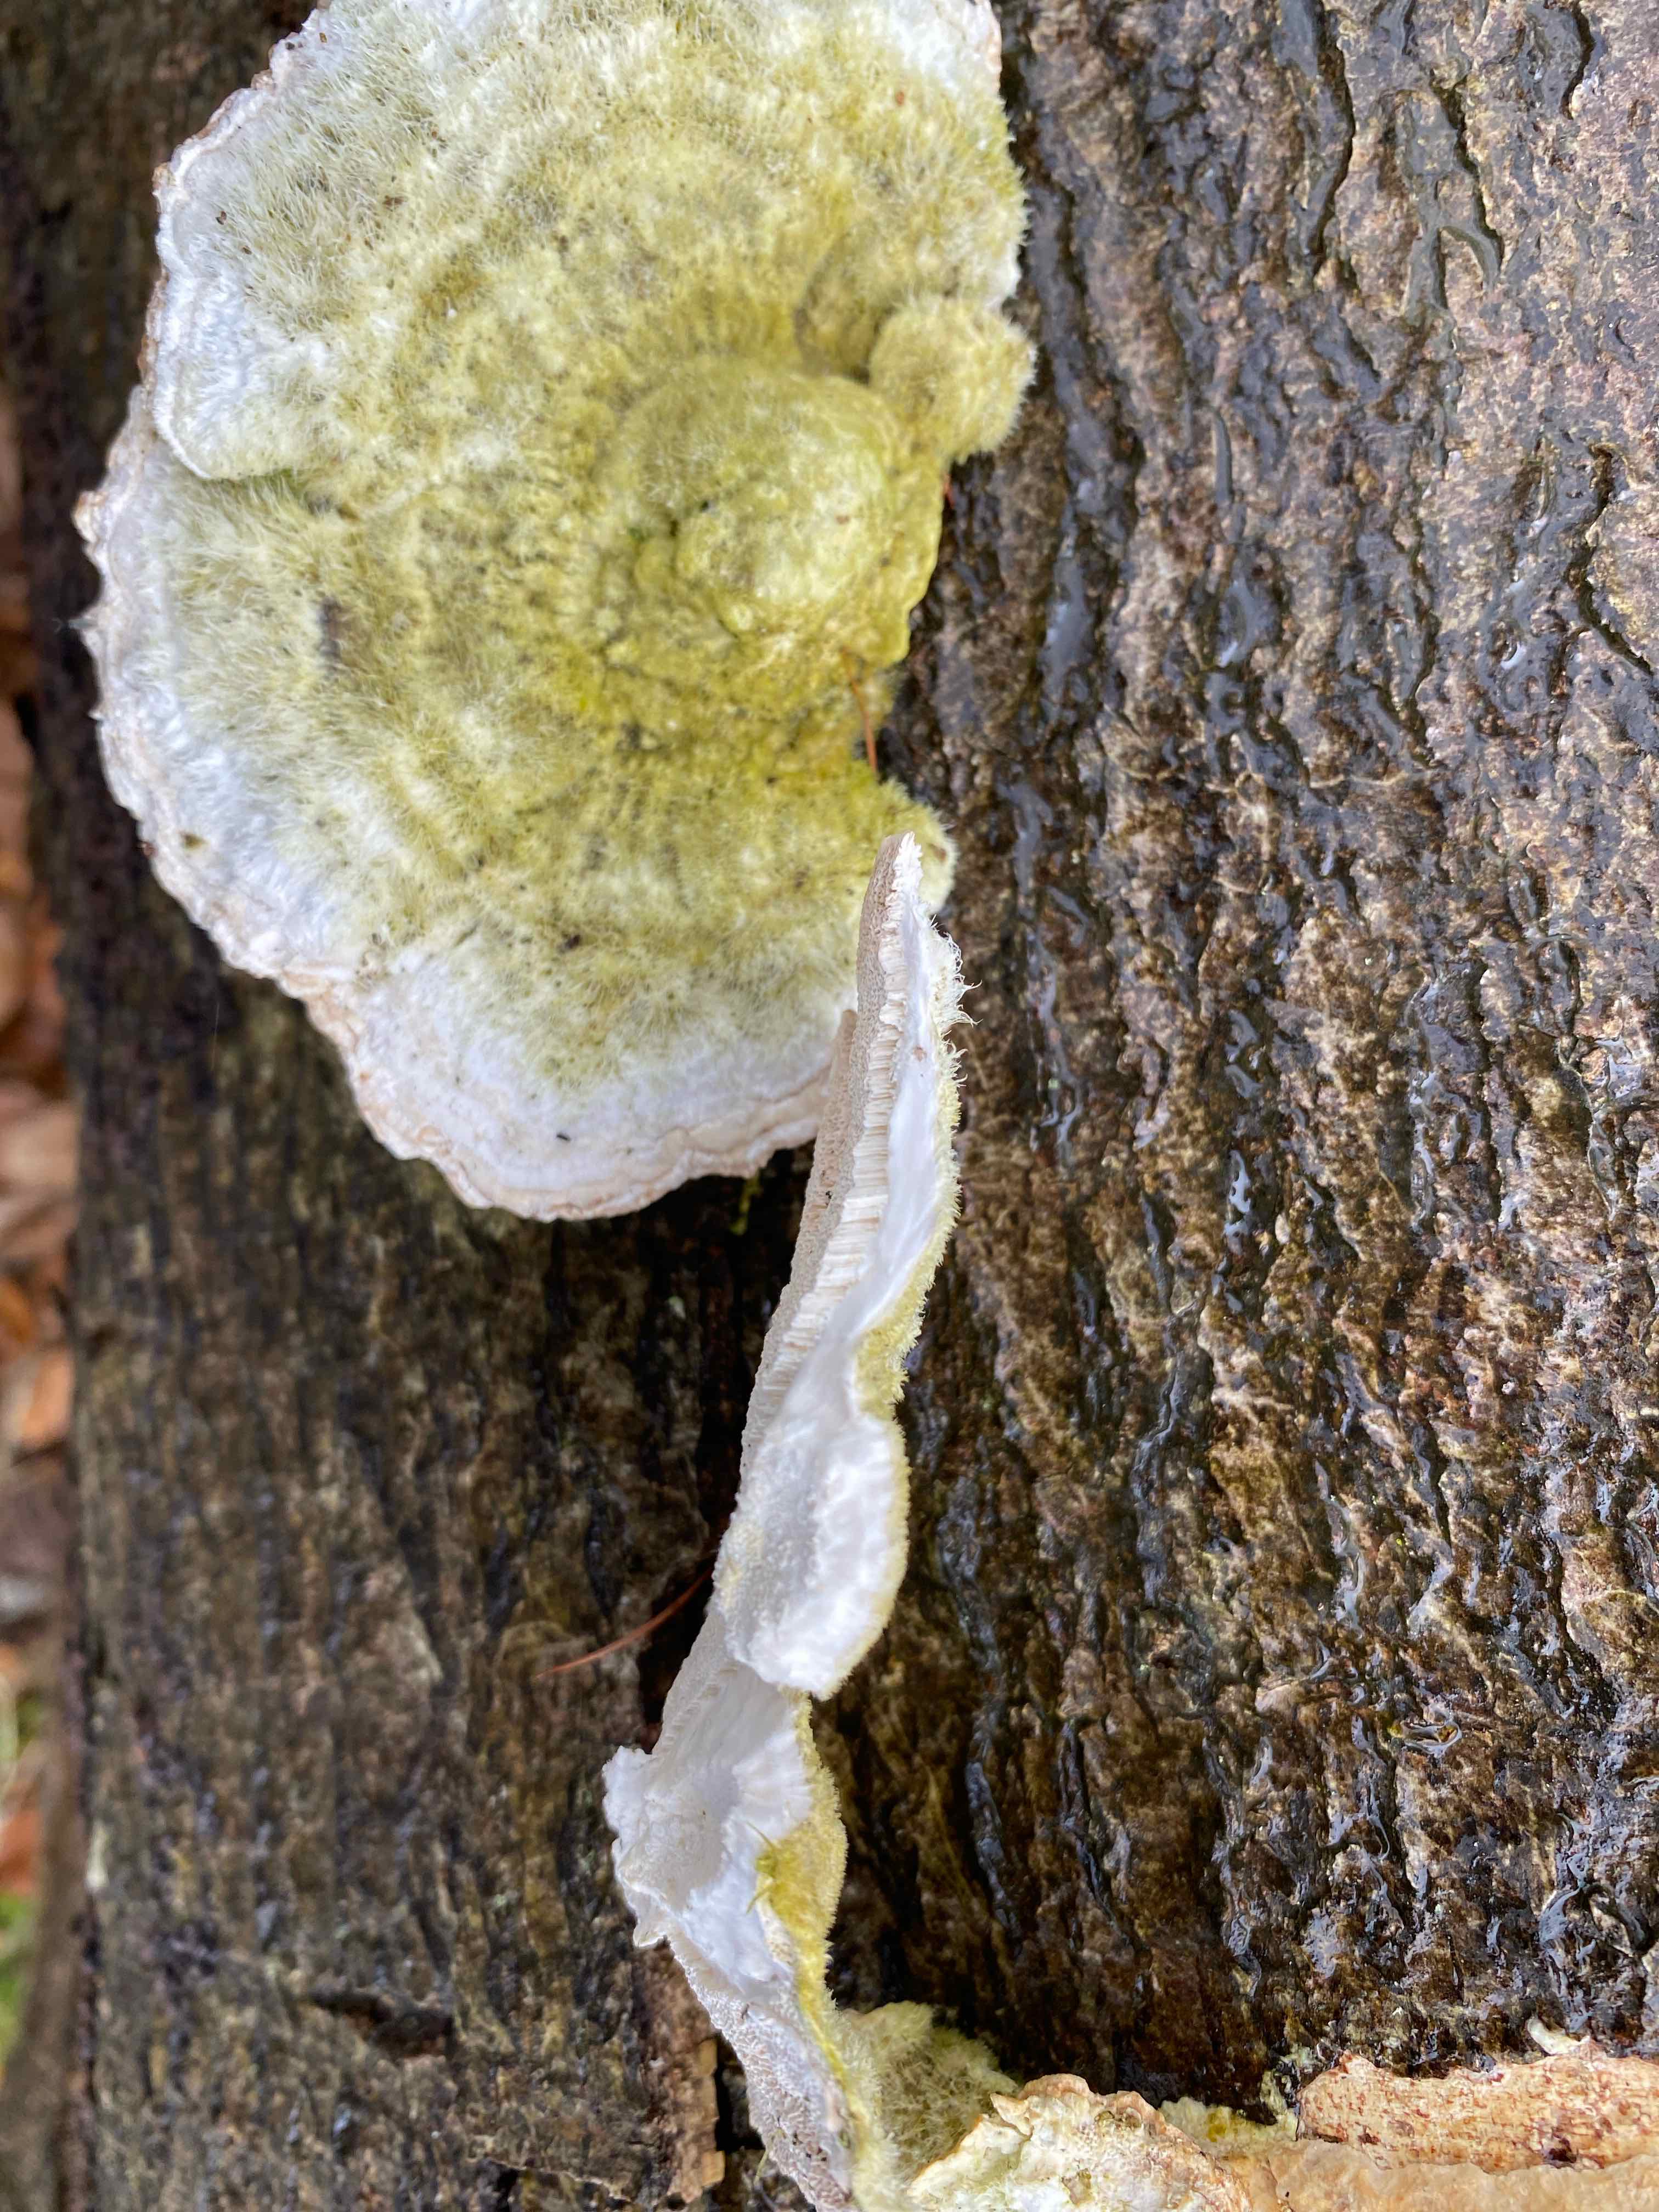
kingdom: Fungi
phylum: Basidiomycota
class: Agaricomycetes
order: Polyporales
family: Polyporaceae
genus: Trametes
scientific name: Trametes hirsuta
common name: håret læderporesvamp
